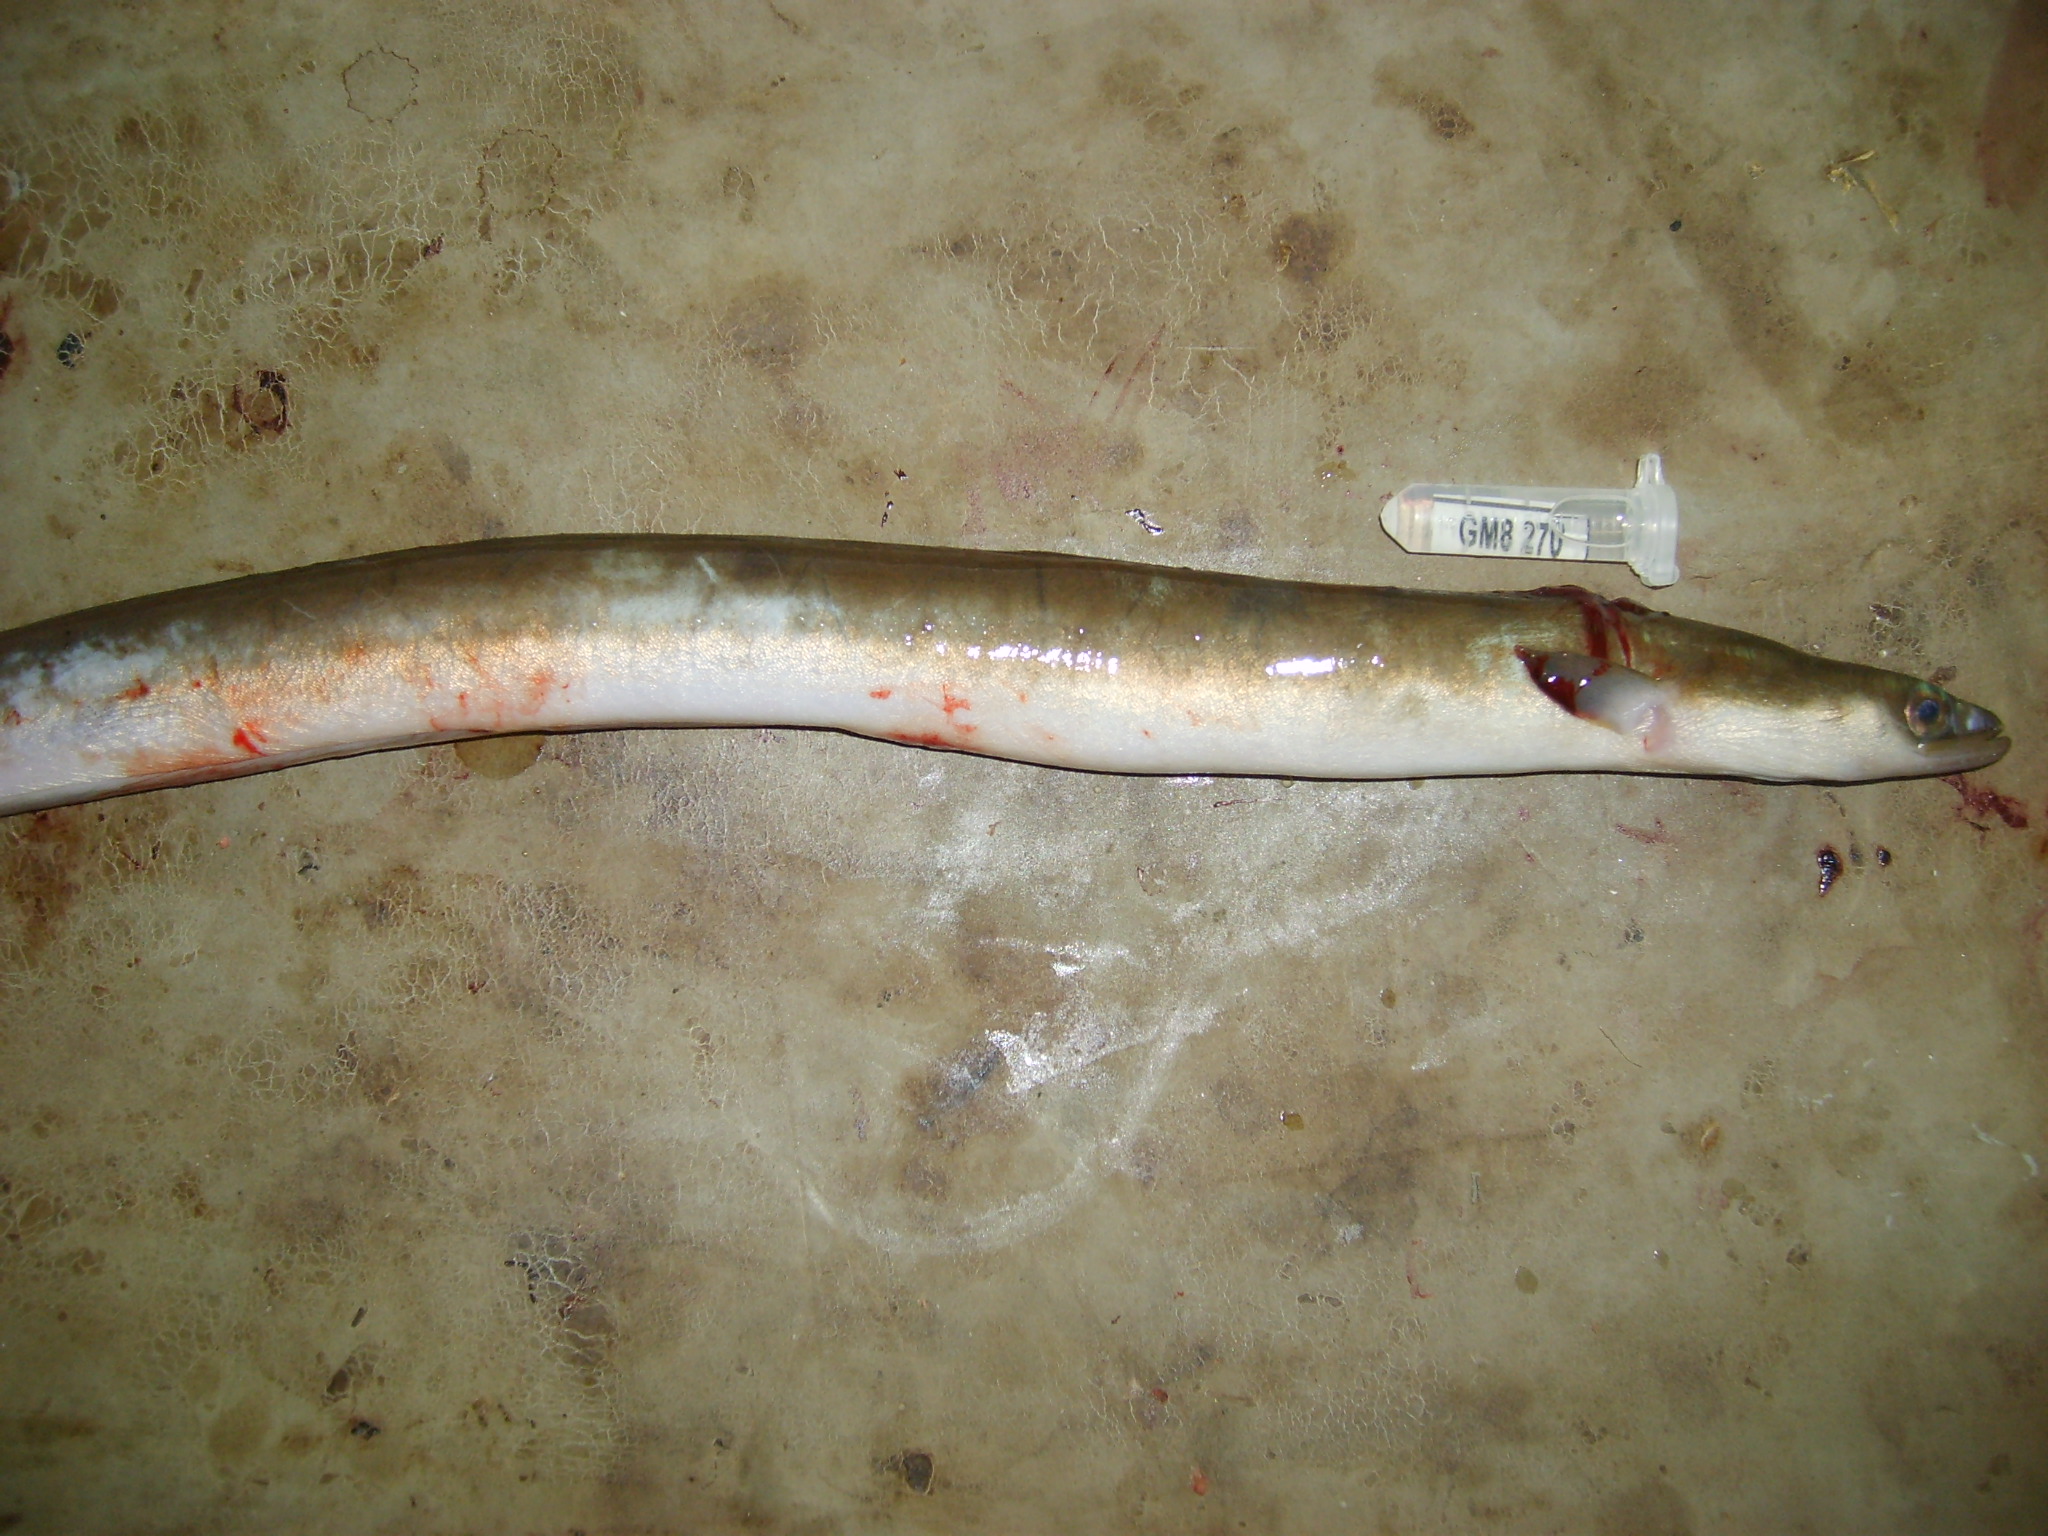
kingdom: Animalia
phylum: Chordata
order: Anguilliformes
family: Anguillidae
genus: Anguilla
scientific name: Anguilla mossambica
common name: African longfin eel
